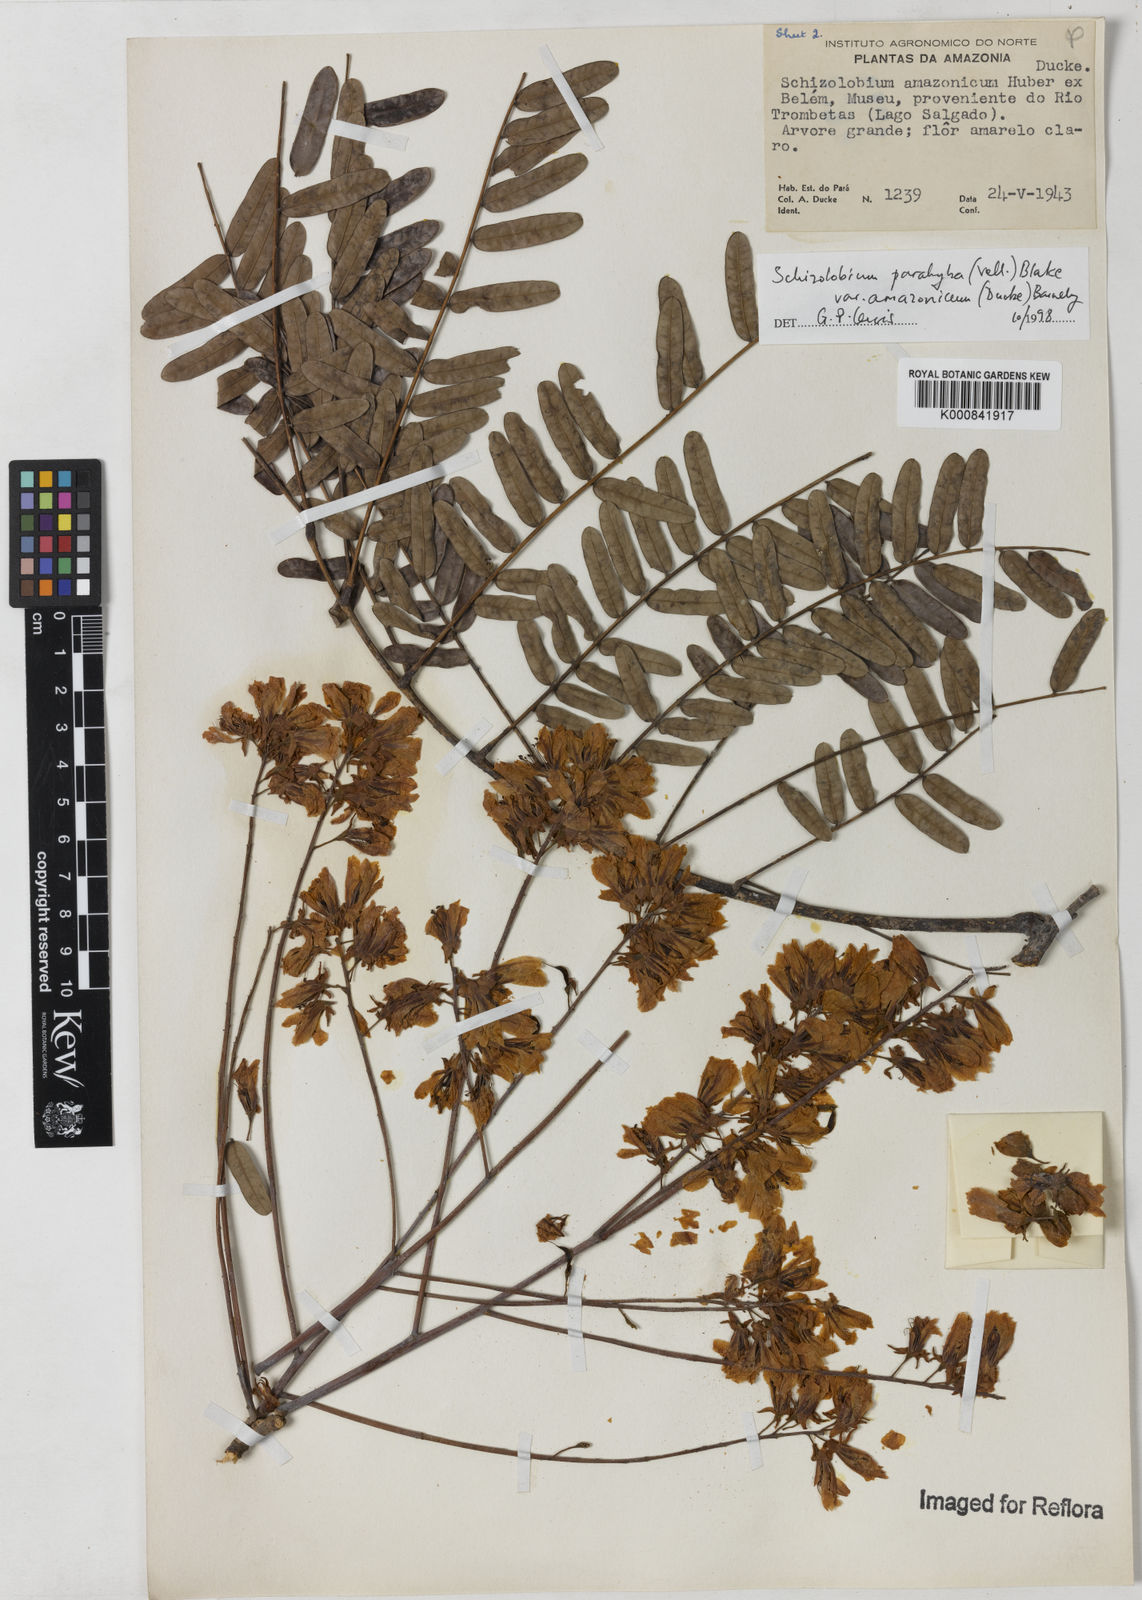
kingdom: Plantae
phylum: Tracheophyta
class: Magnoliopsida
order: Fabales
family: Fabaceae
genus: Schizolobium
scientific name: Schizolobium parahyba
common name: Brazilian firetree
